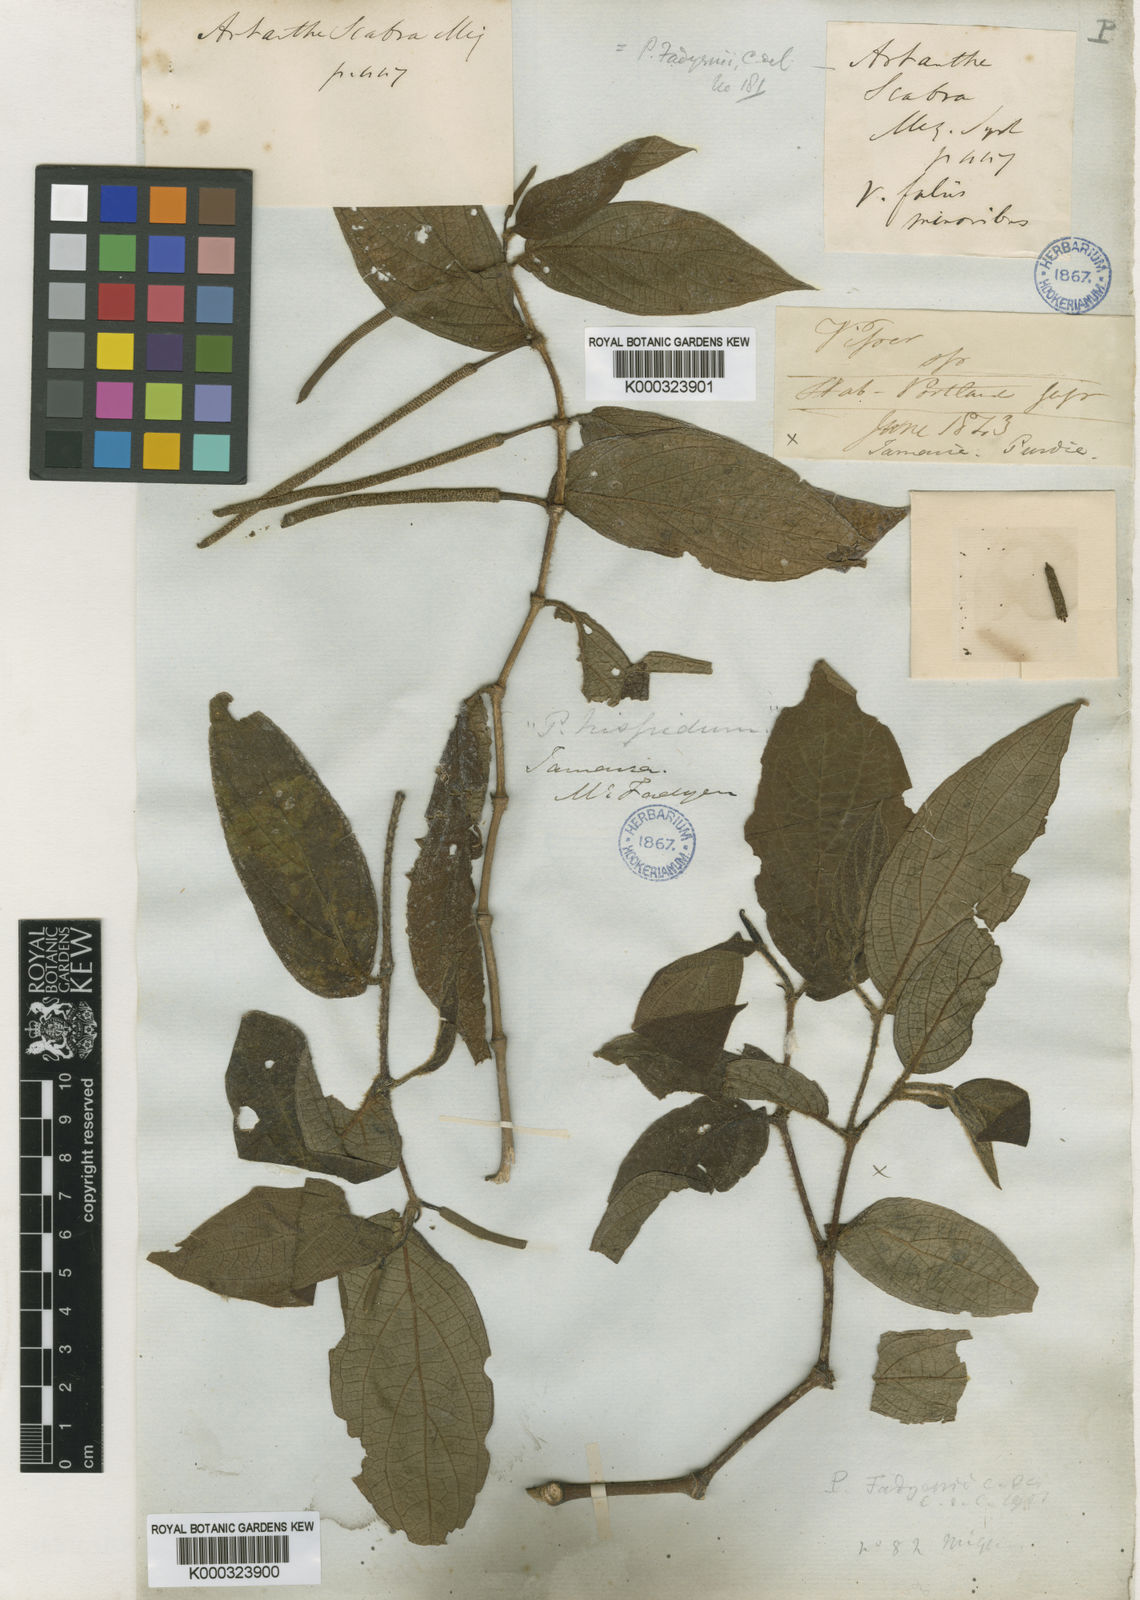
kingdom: Plantae
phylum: Tracheophyta
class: Magnoliopsida
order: Piperales
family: Piperaceae
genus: Piper
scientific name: Piper fadyenii
